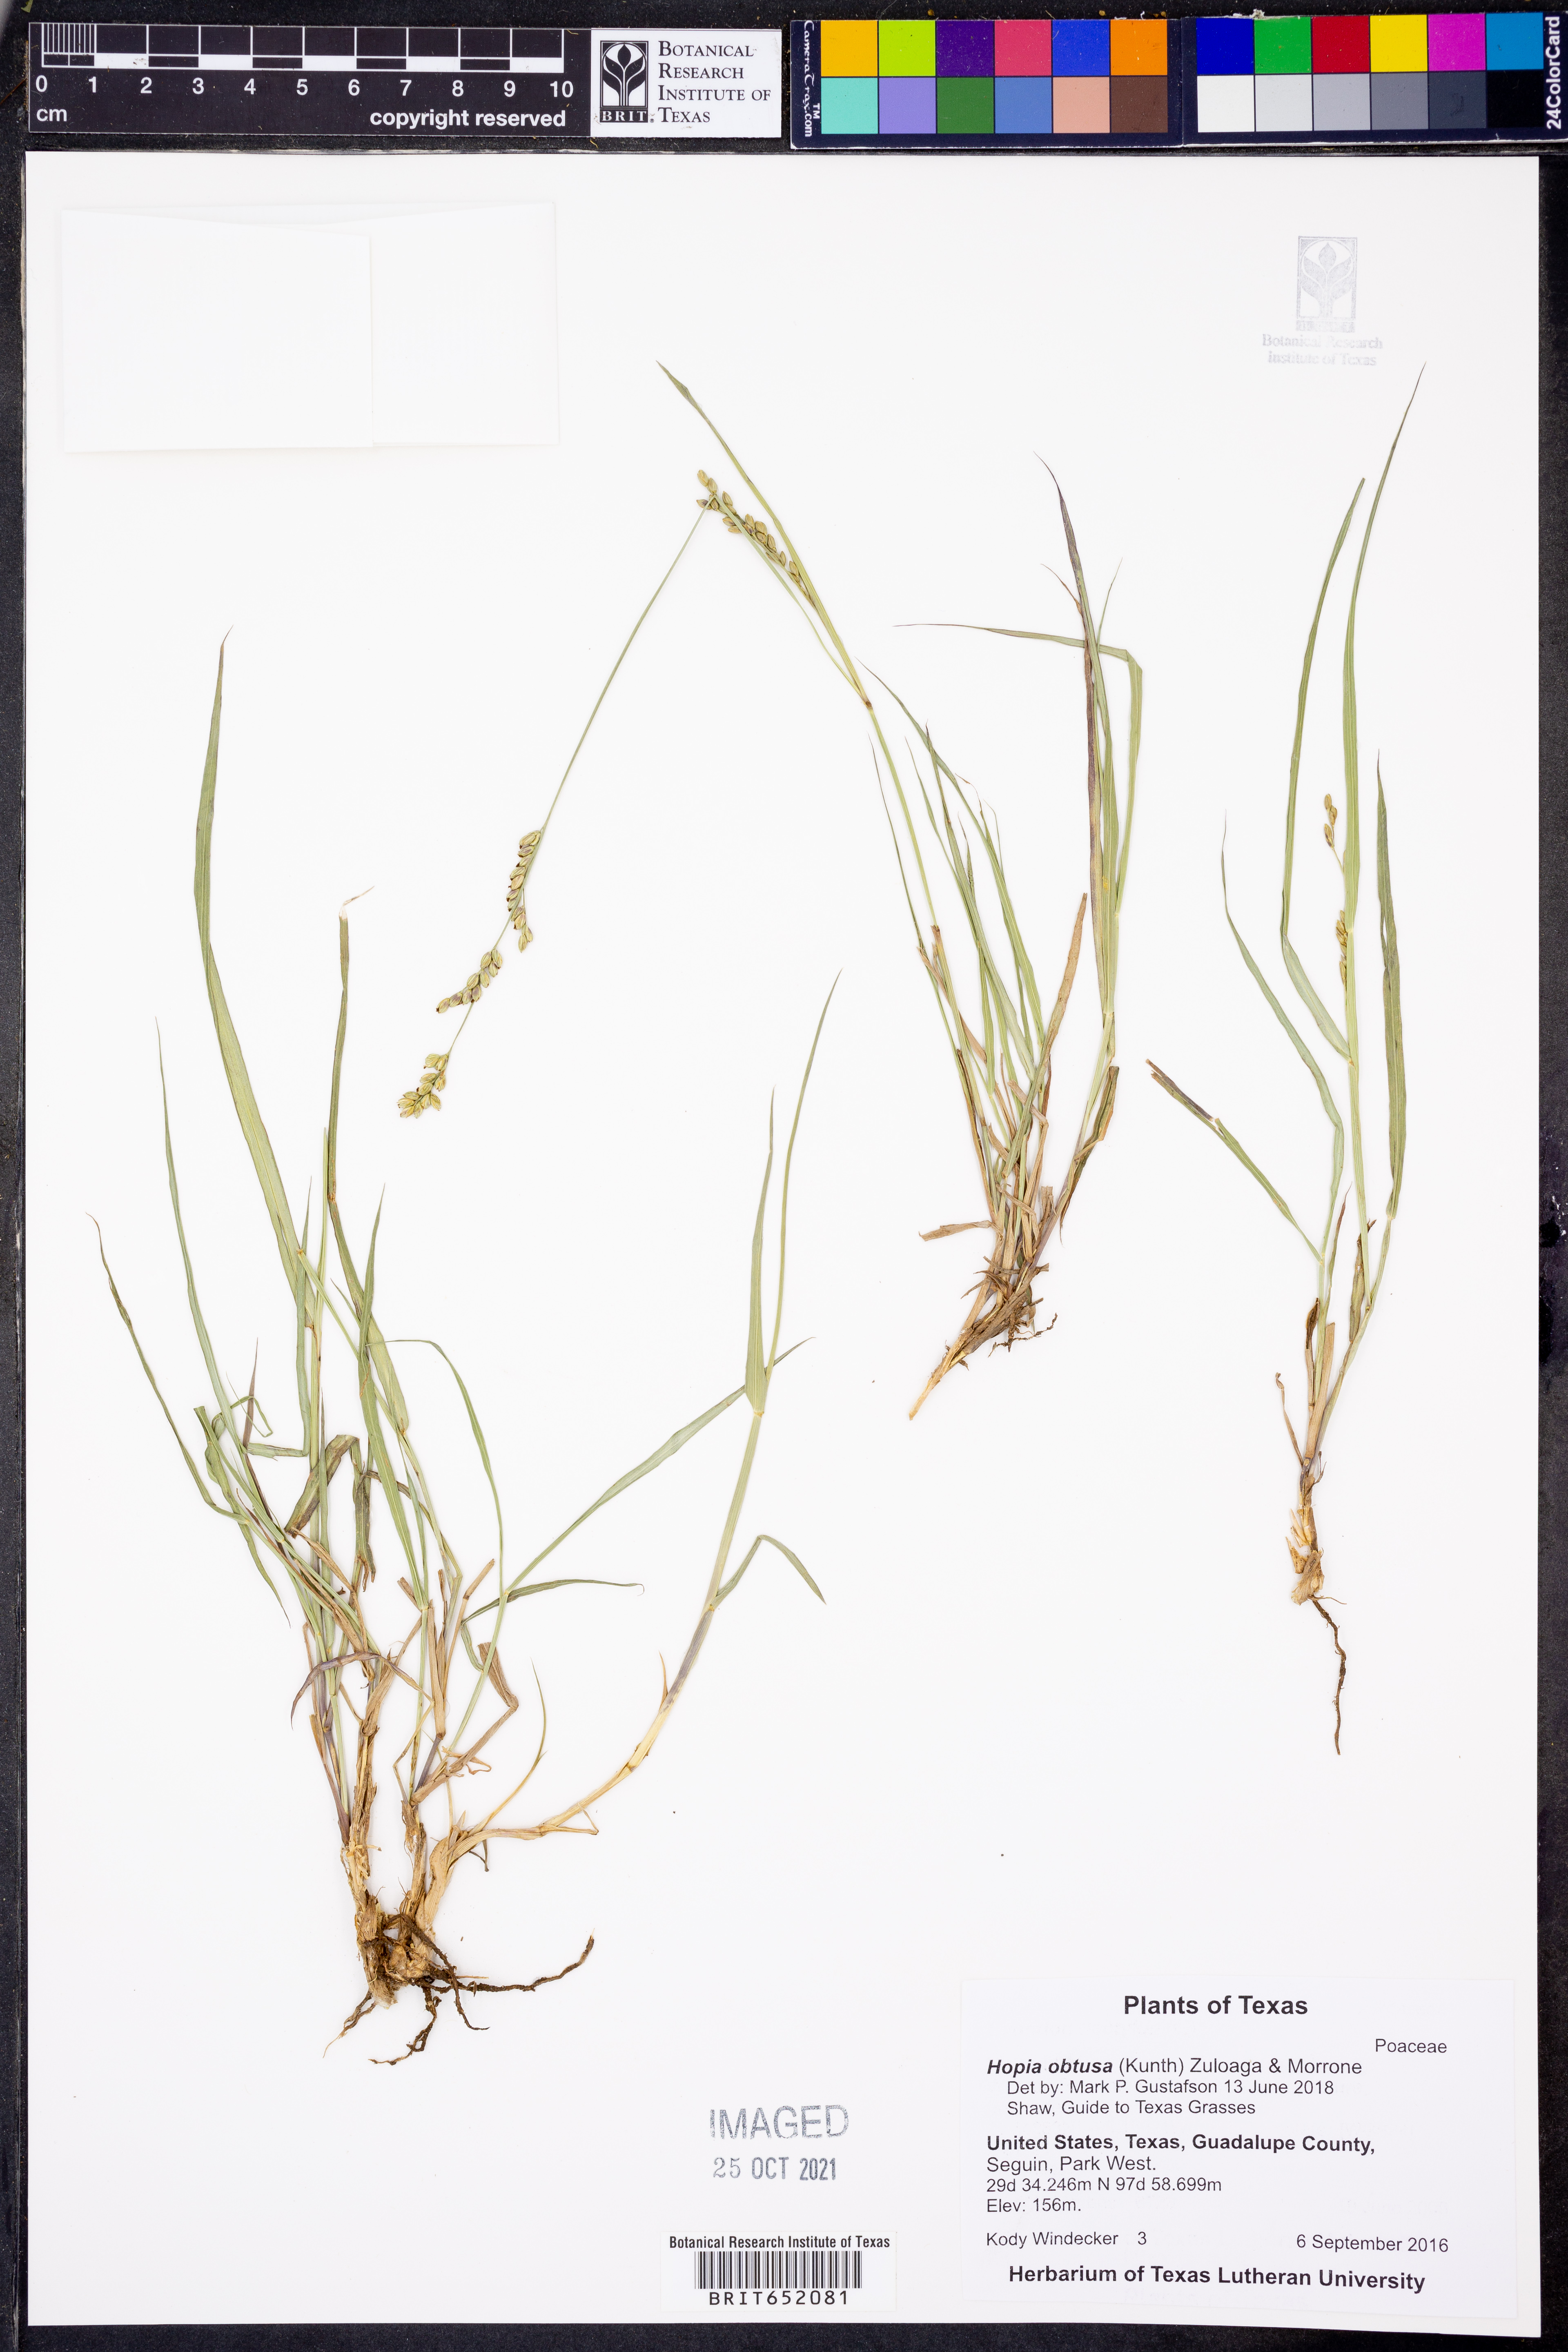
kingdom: Plantae
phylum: Tracheophyta
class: Liliopsida
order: Poales
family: Poaceae
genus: Hopia
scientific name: Hopia obtusa
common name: Vine-mesquite
